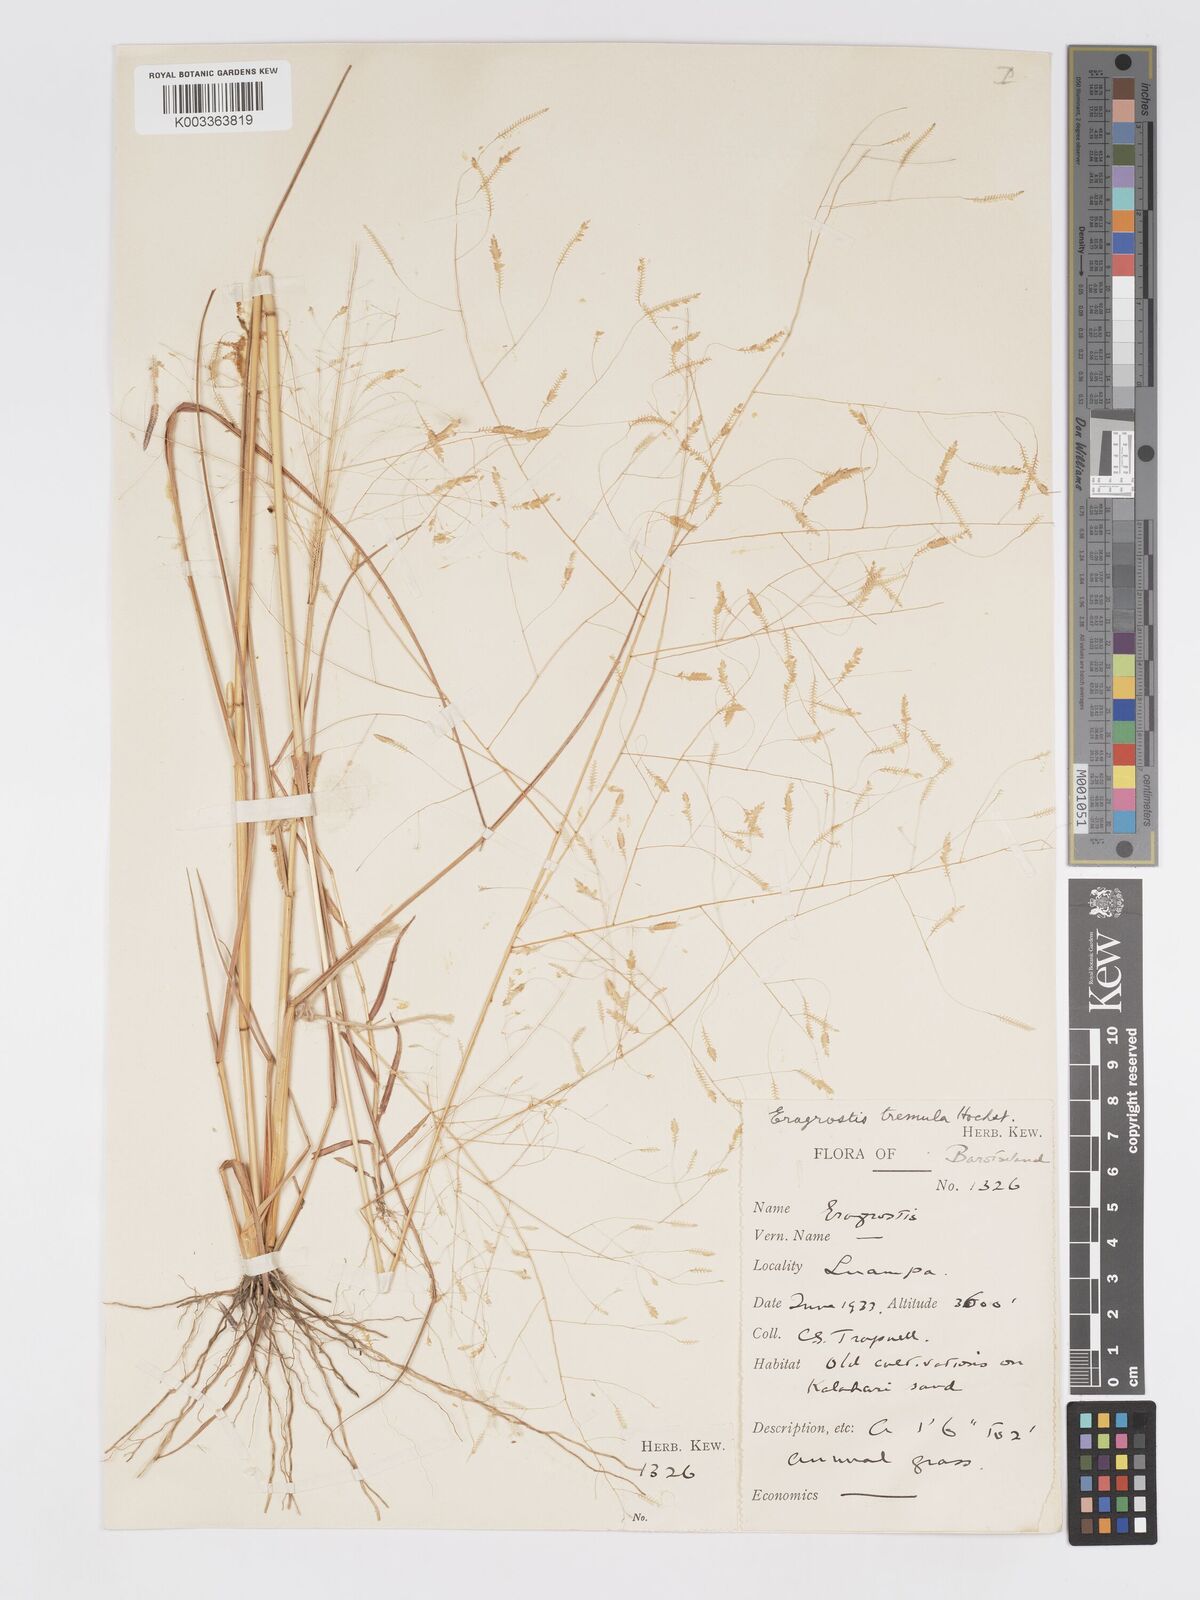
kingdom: Plantae
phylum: Tracheophyta
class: Liliopsida
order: Poales
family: Poaceae
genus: Eragrostis
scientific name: Eragrostis tremula
